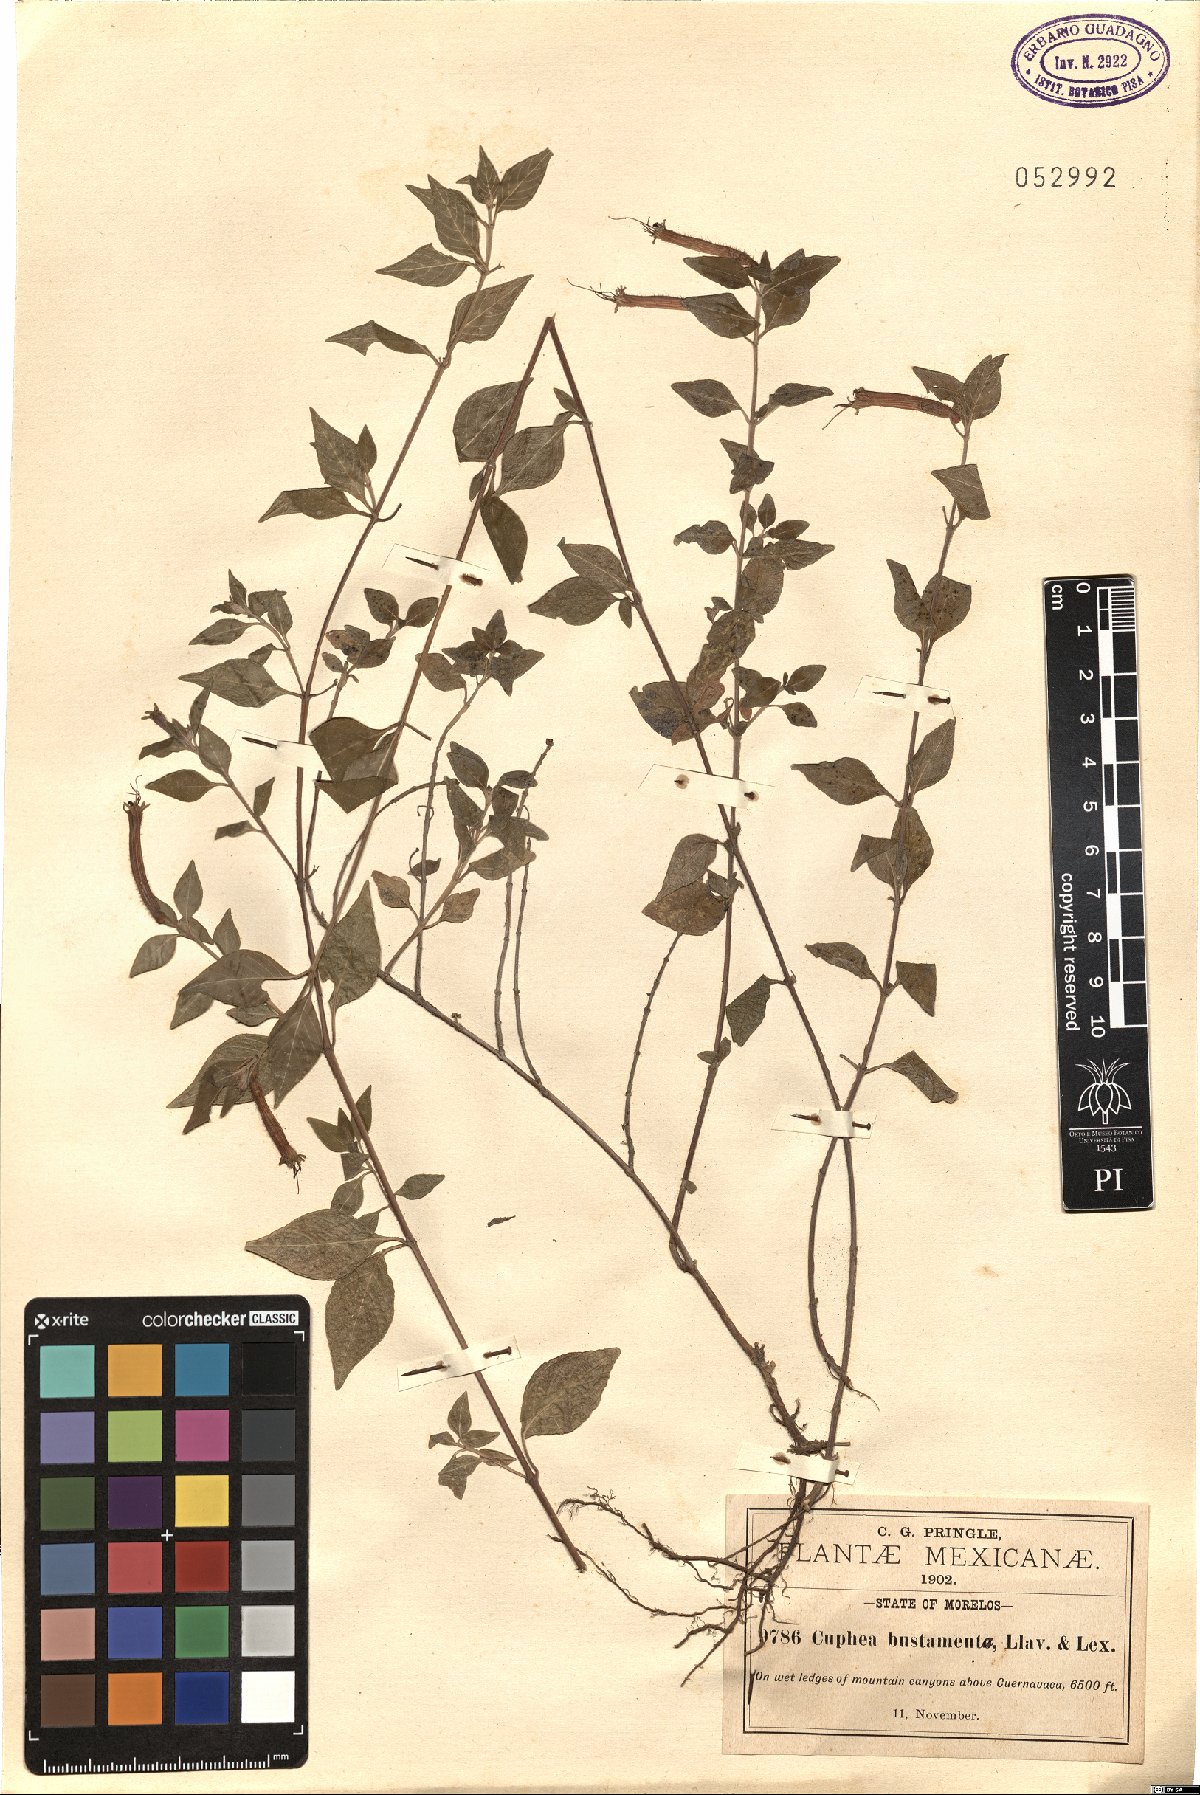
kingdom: Plantae
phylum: Tracheophyta
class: Magnoliopsida
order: Myrtales
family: Lythraceae
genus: Cuphea
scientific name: Cuphea bustamanta
